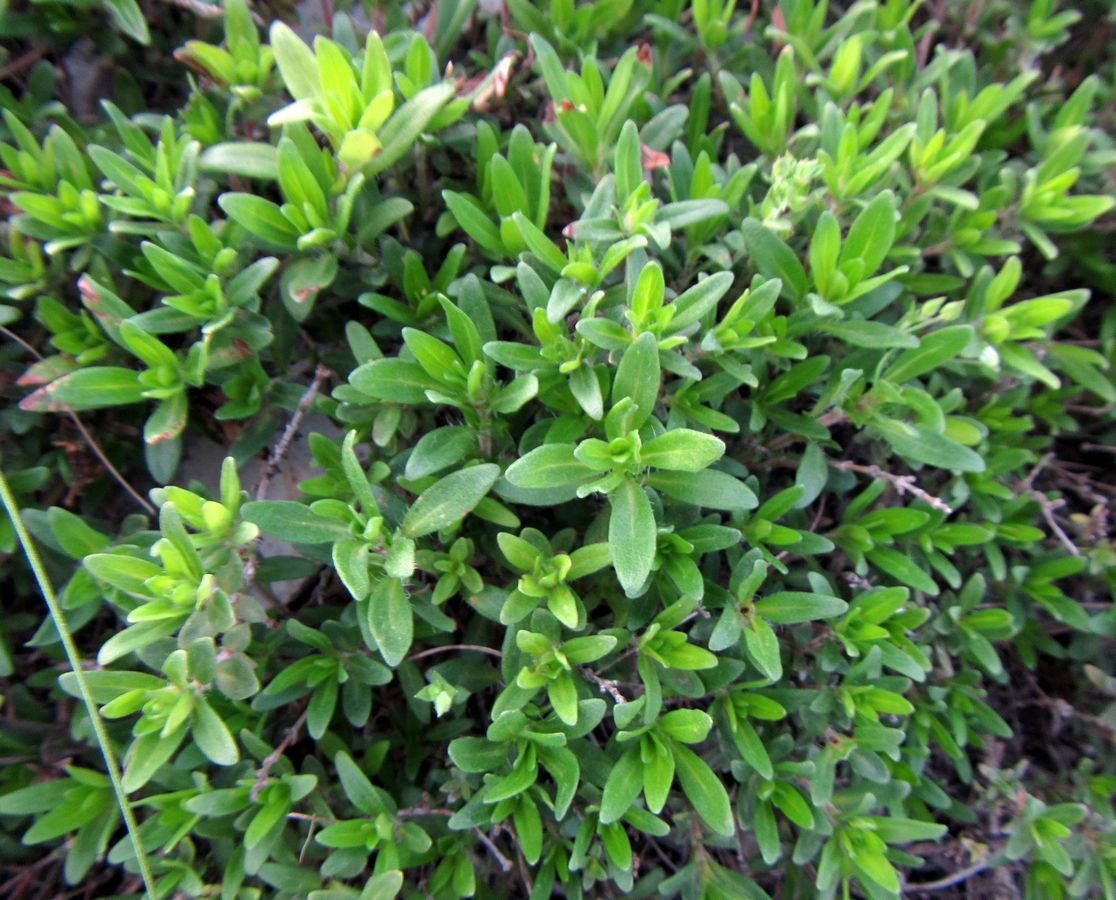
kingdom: Plantae
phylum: Tracheophyta
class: Magnoliopsida
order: Lamiales
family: Lamiaceae
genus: Thymus
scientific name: Thymus callieri
